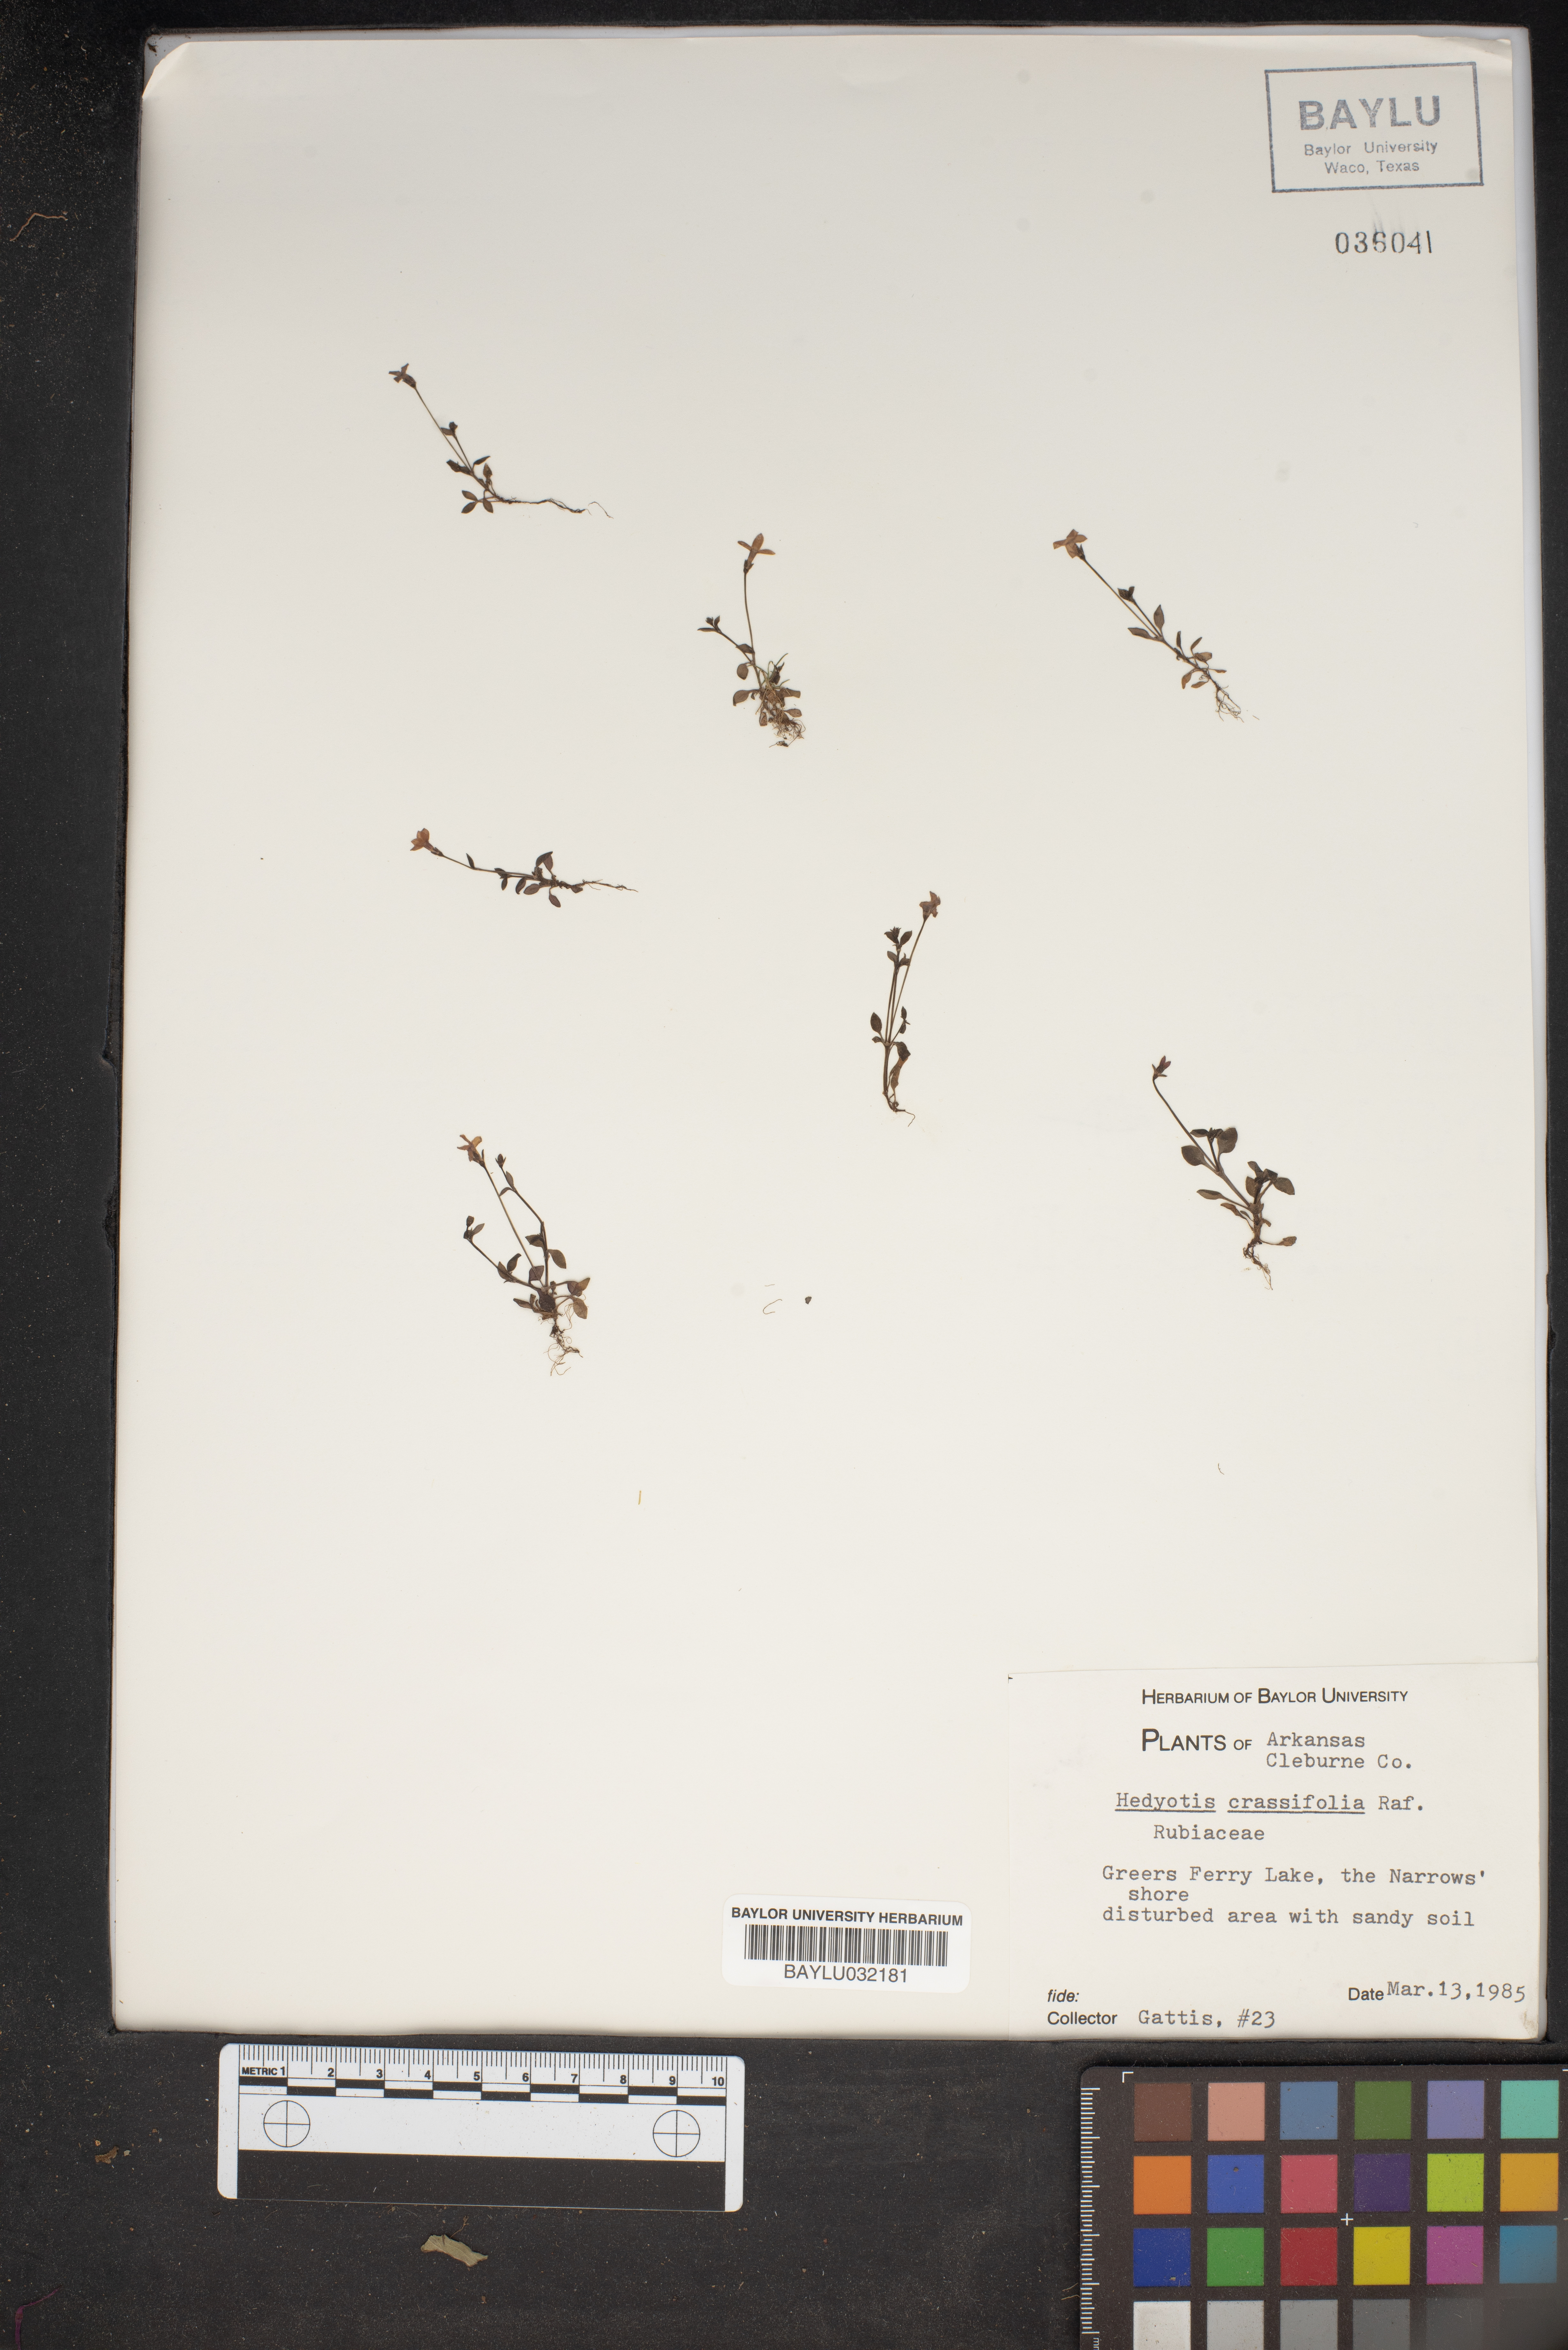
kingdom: Plantae
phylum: Tracheophyta
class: Magnoliopsida
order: Gentianales
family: Rubiaceae
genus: Houstonia
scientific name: Houstonia pusilla
